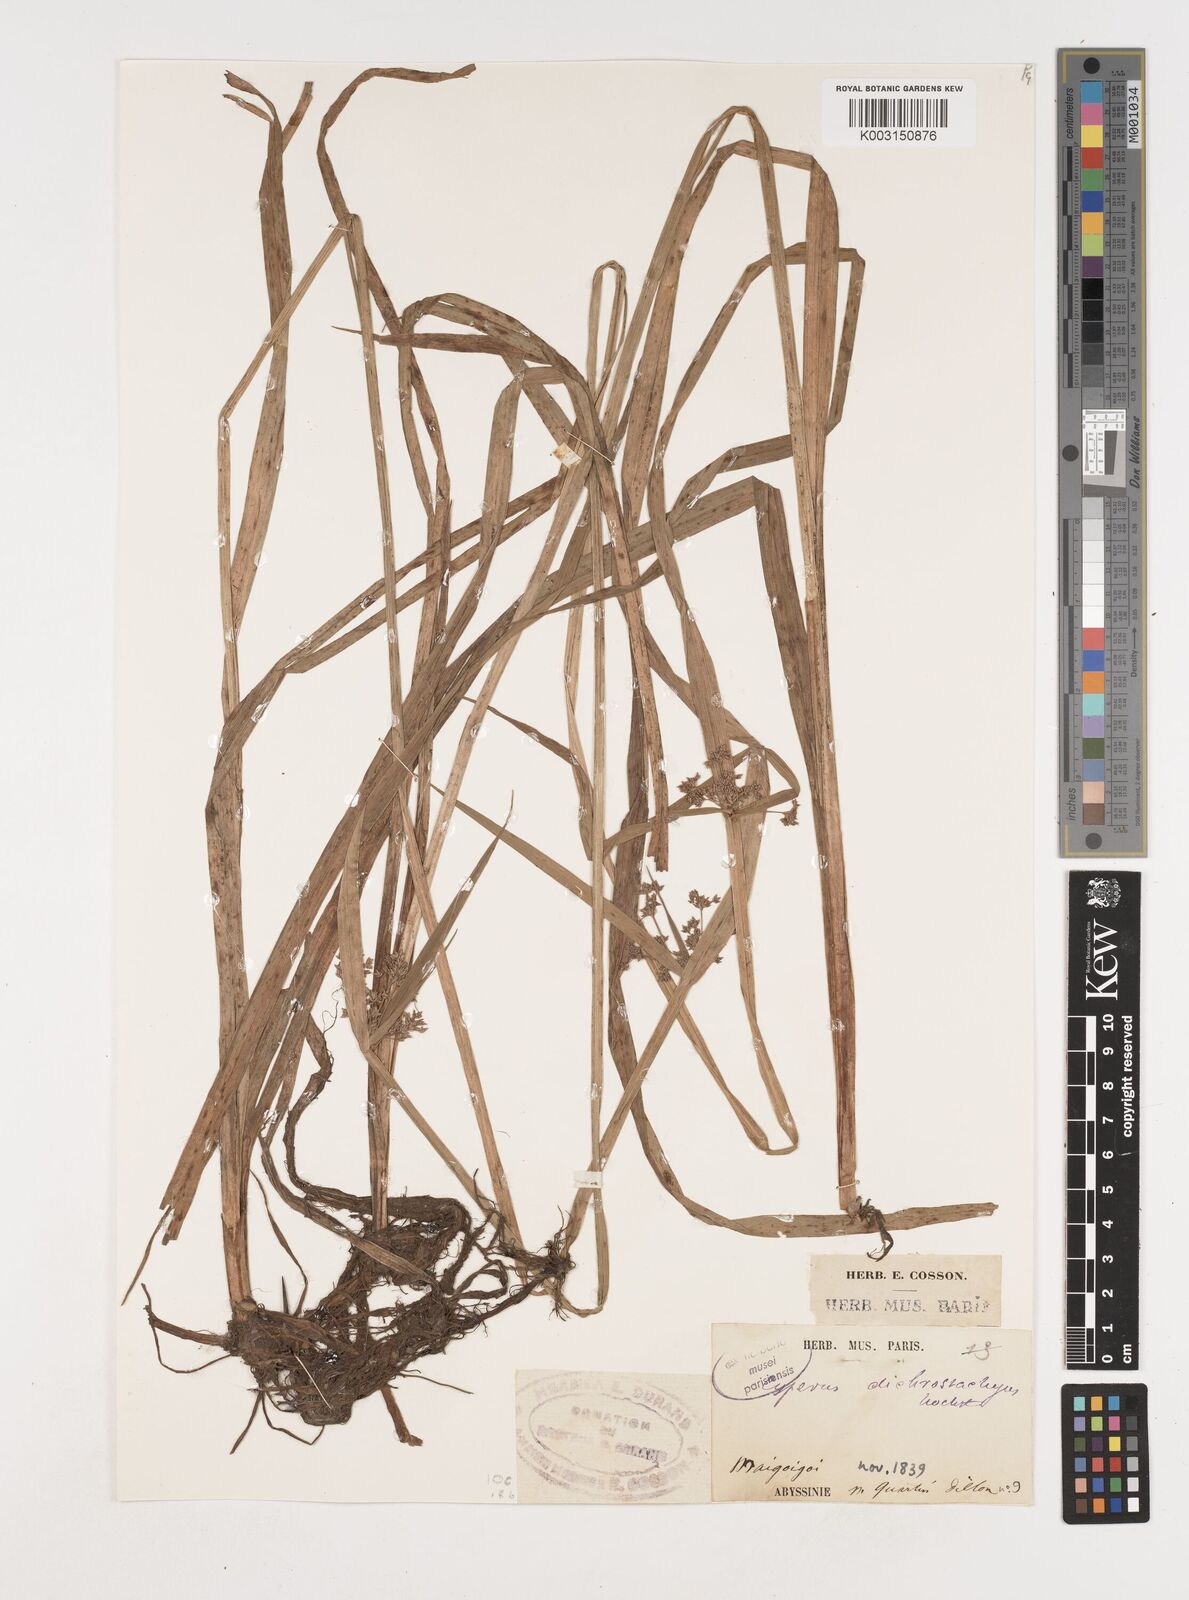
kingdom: Plantae
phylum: Tracheophyta
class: Liliopsida
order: Poales
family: Cyperaceae
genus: Cyperus
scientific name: Cyperus dichrostachyus
